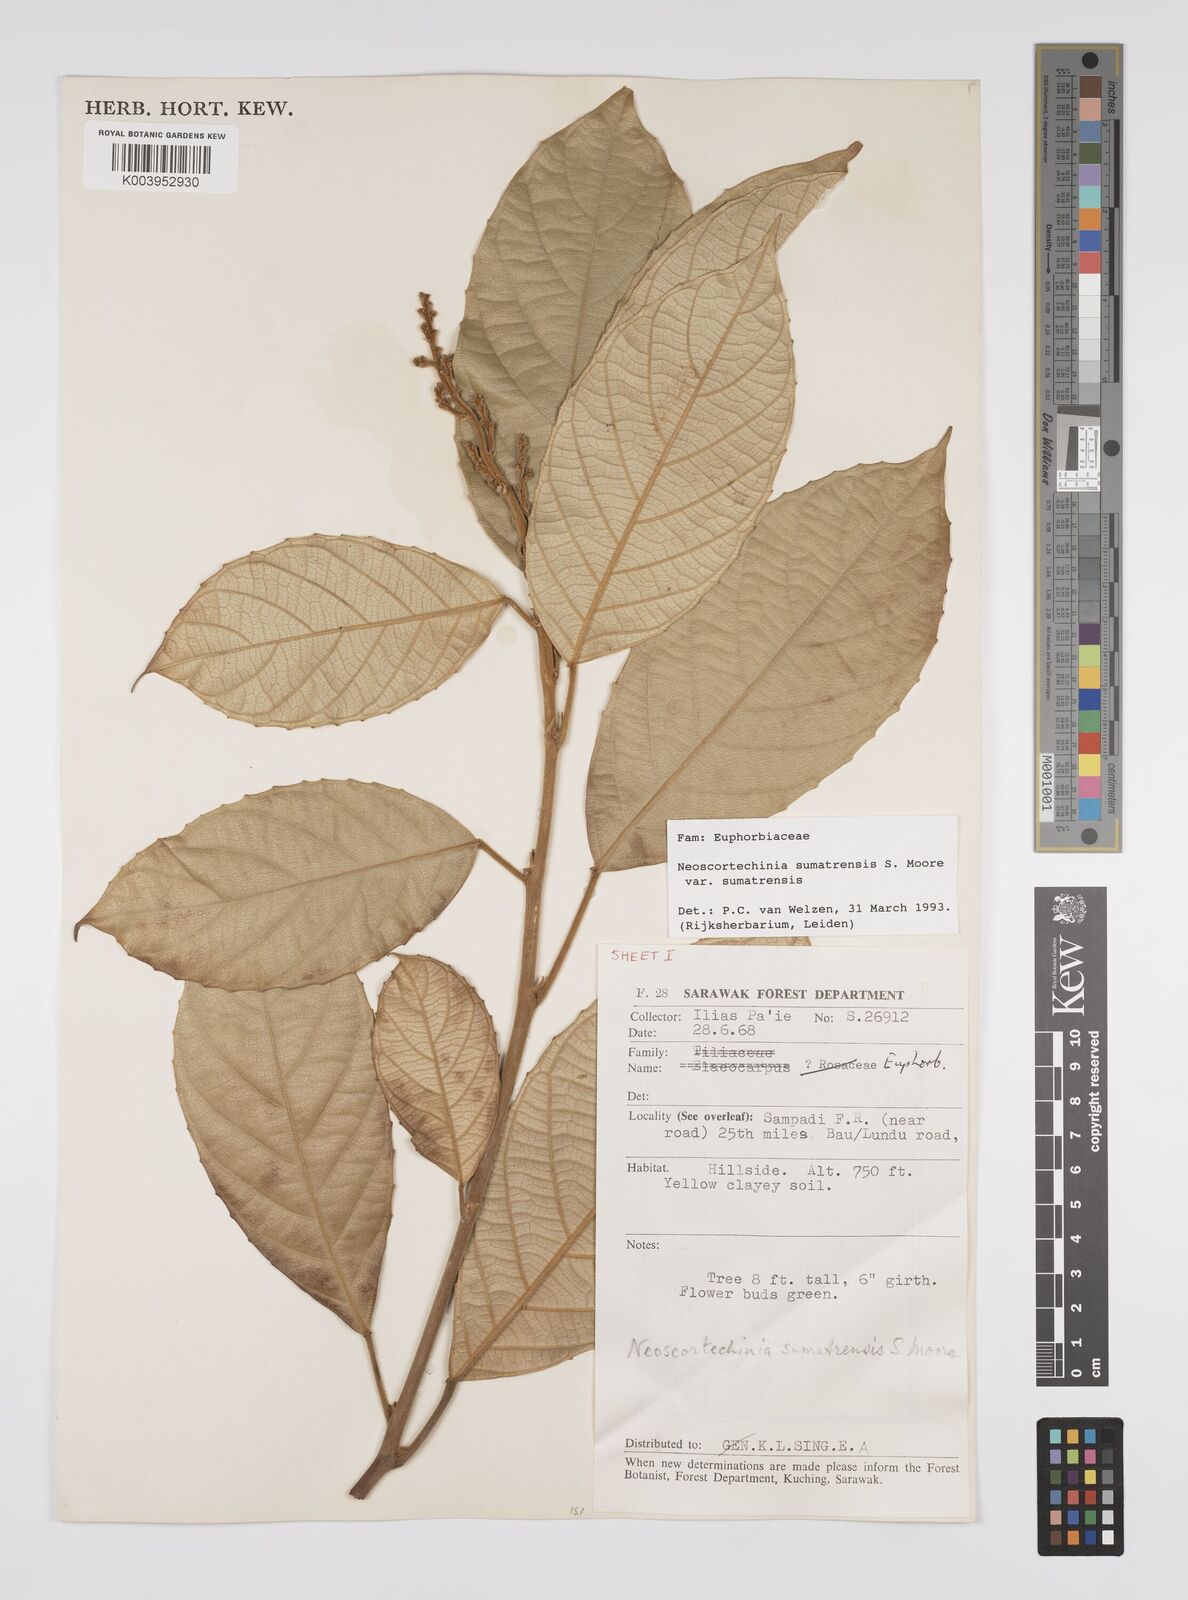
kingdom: Plantae
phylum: Tracheophyta
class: Magnoliopsida
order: Malpighiales
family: Euphorbiaceae
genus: Neoscortechinia
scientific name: Neoscortechinia sumatrensis
